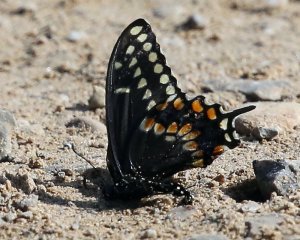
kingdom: Animalia
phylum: Arthropoda
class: Insecta
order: Lepidoptera
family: Papilionidae
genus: Papilio
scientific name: Papilio polyxenes
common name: Black Swallowtail
